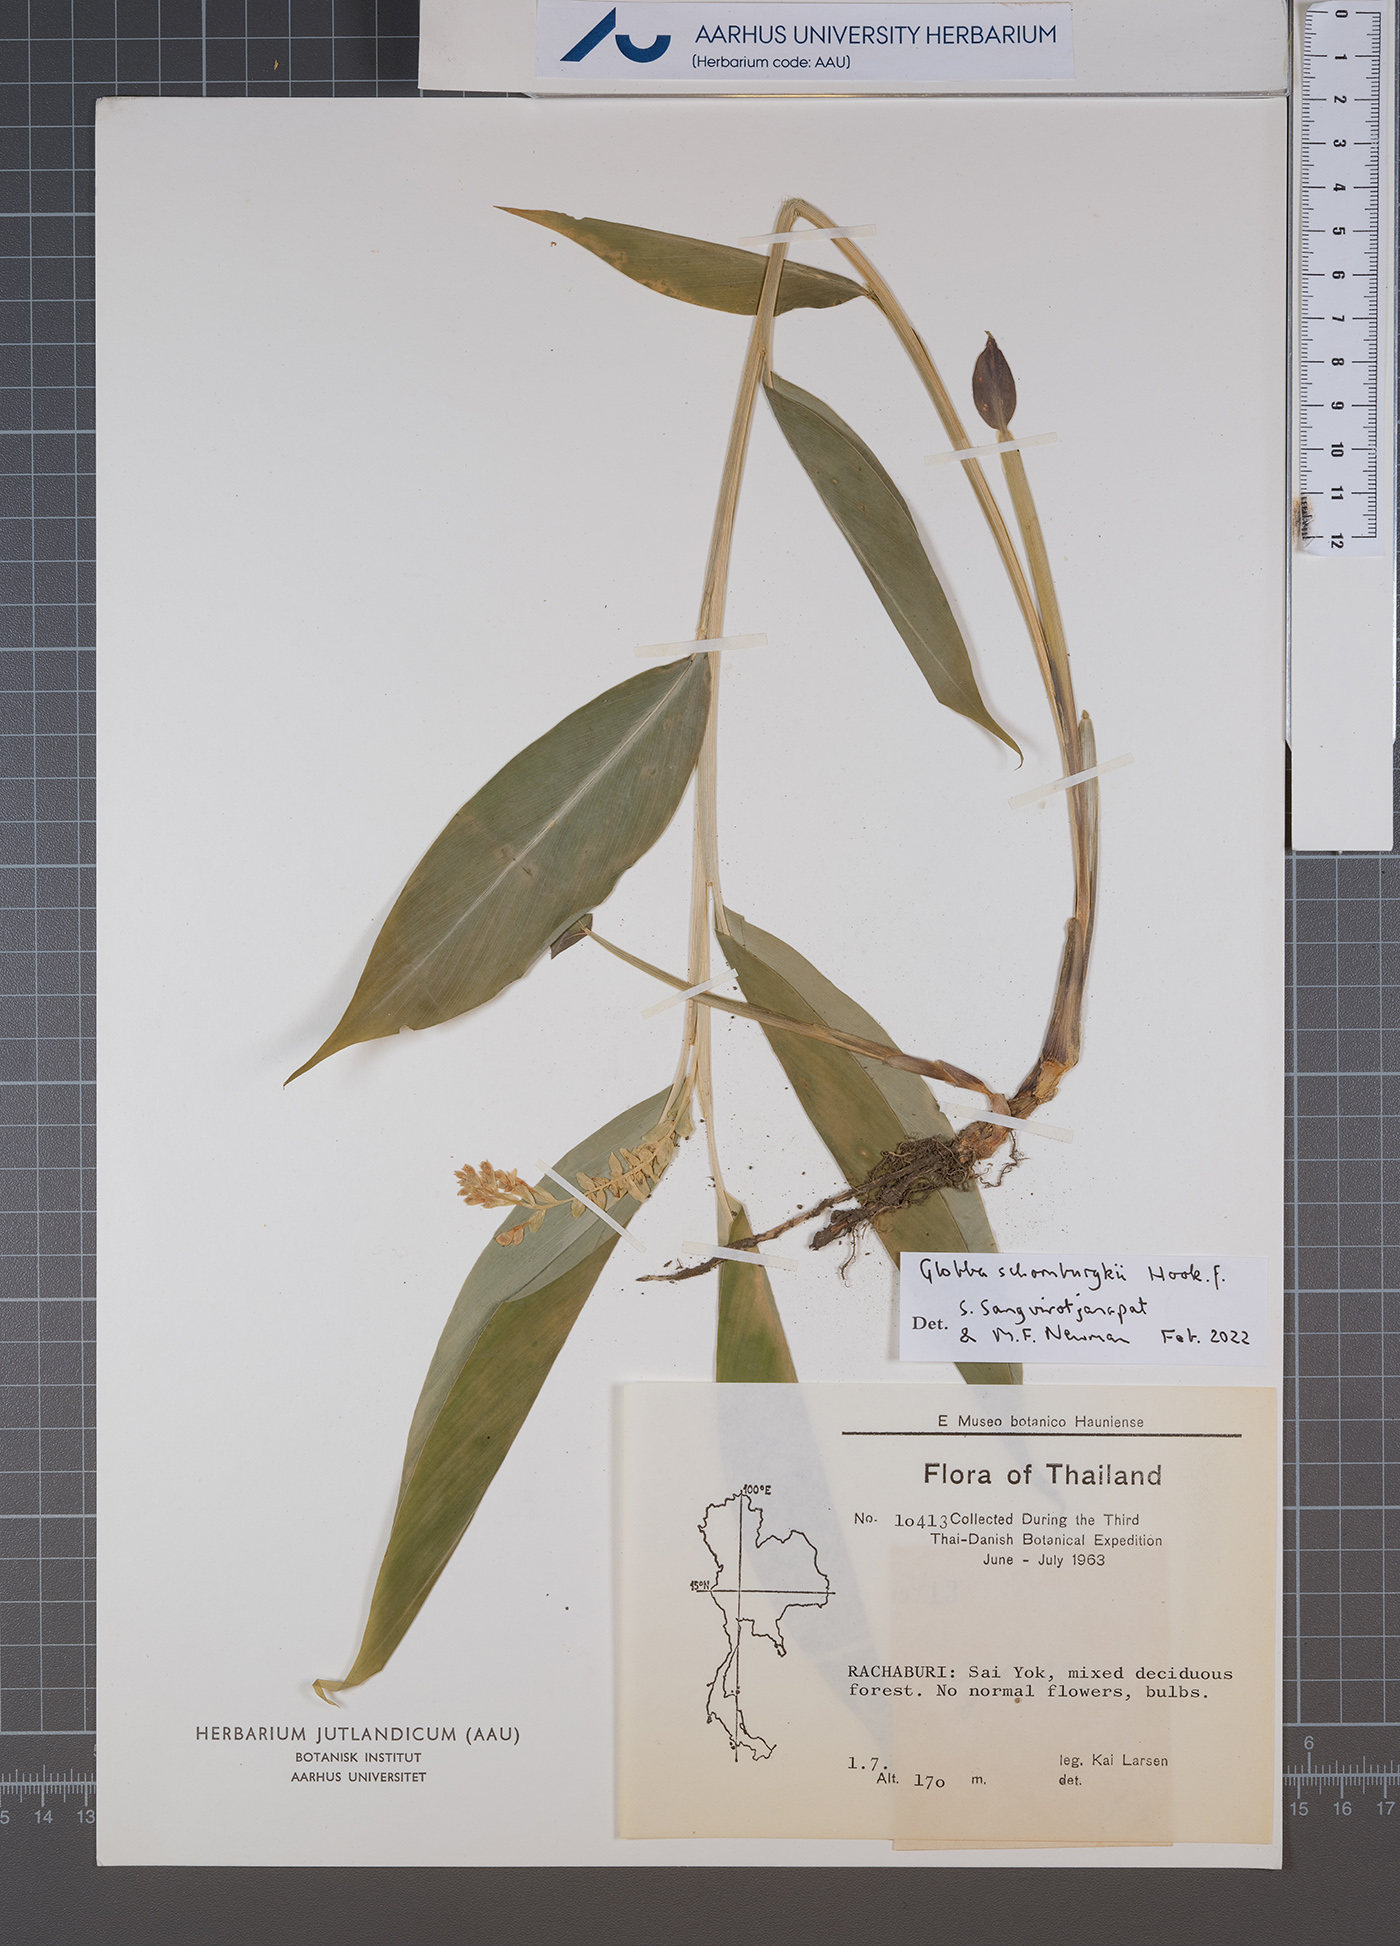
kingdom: Plantae
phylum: Tracheophyta
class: Liliopsida
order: Zingiberales
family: Zingiberaceae
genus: Globba
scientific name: Globba schomburgkii
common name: Dancing girl ginger
